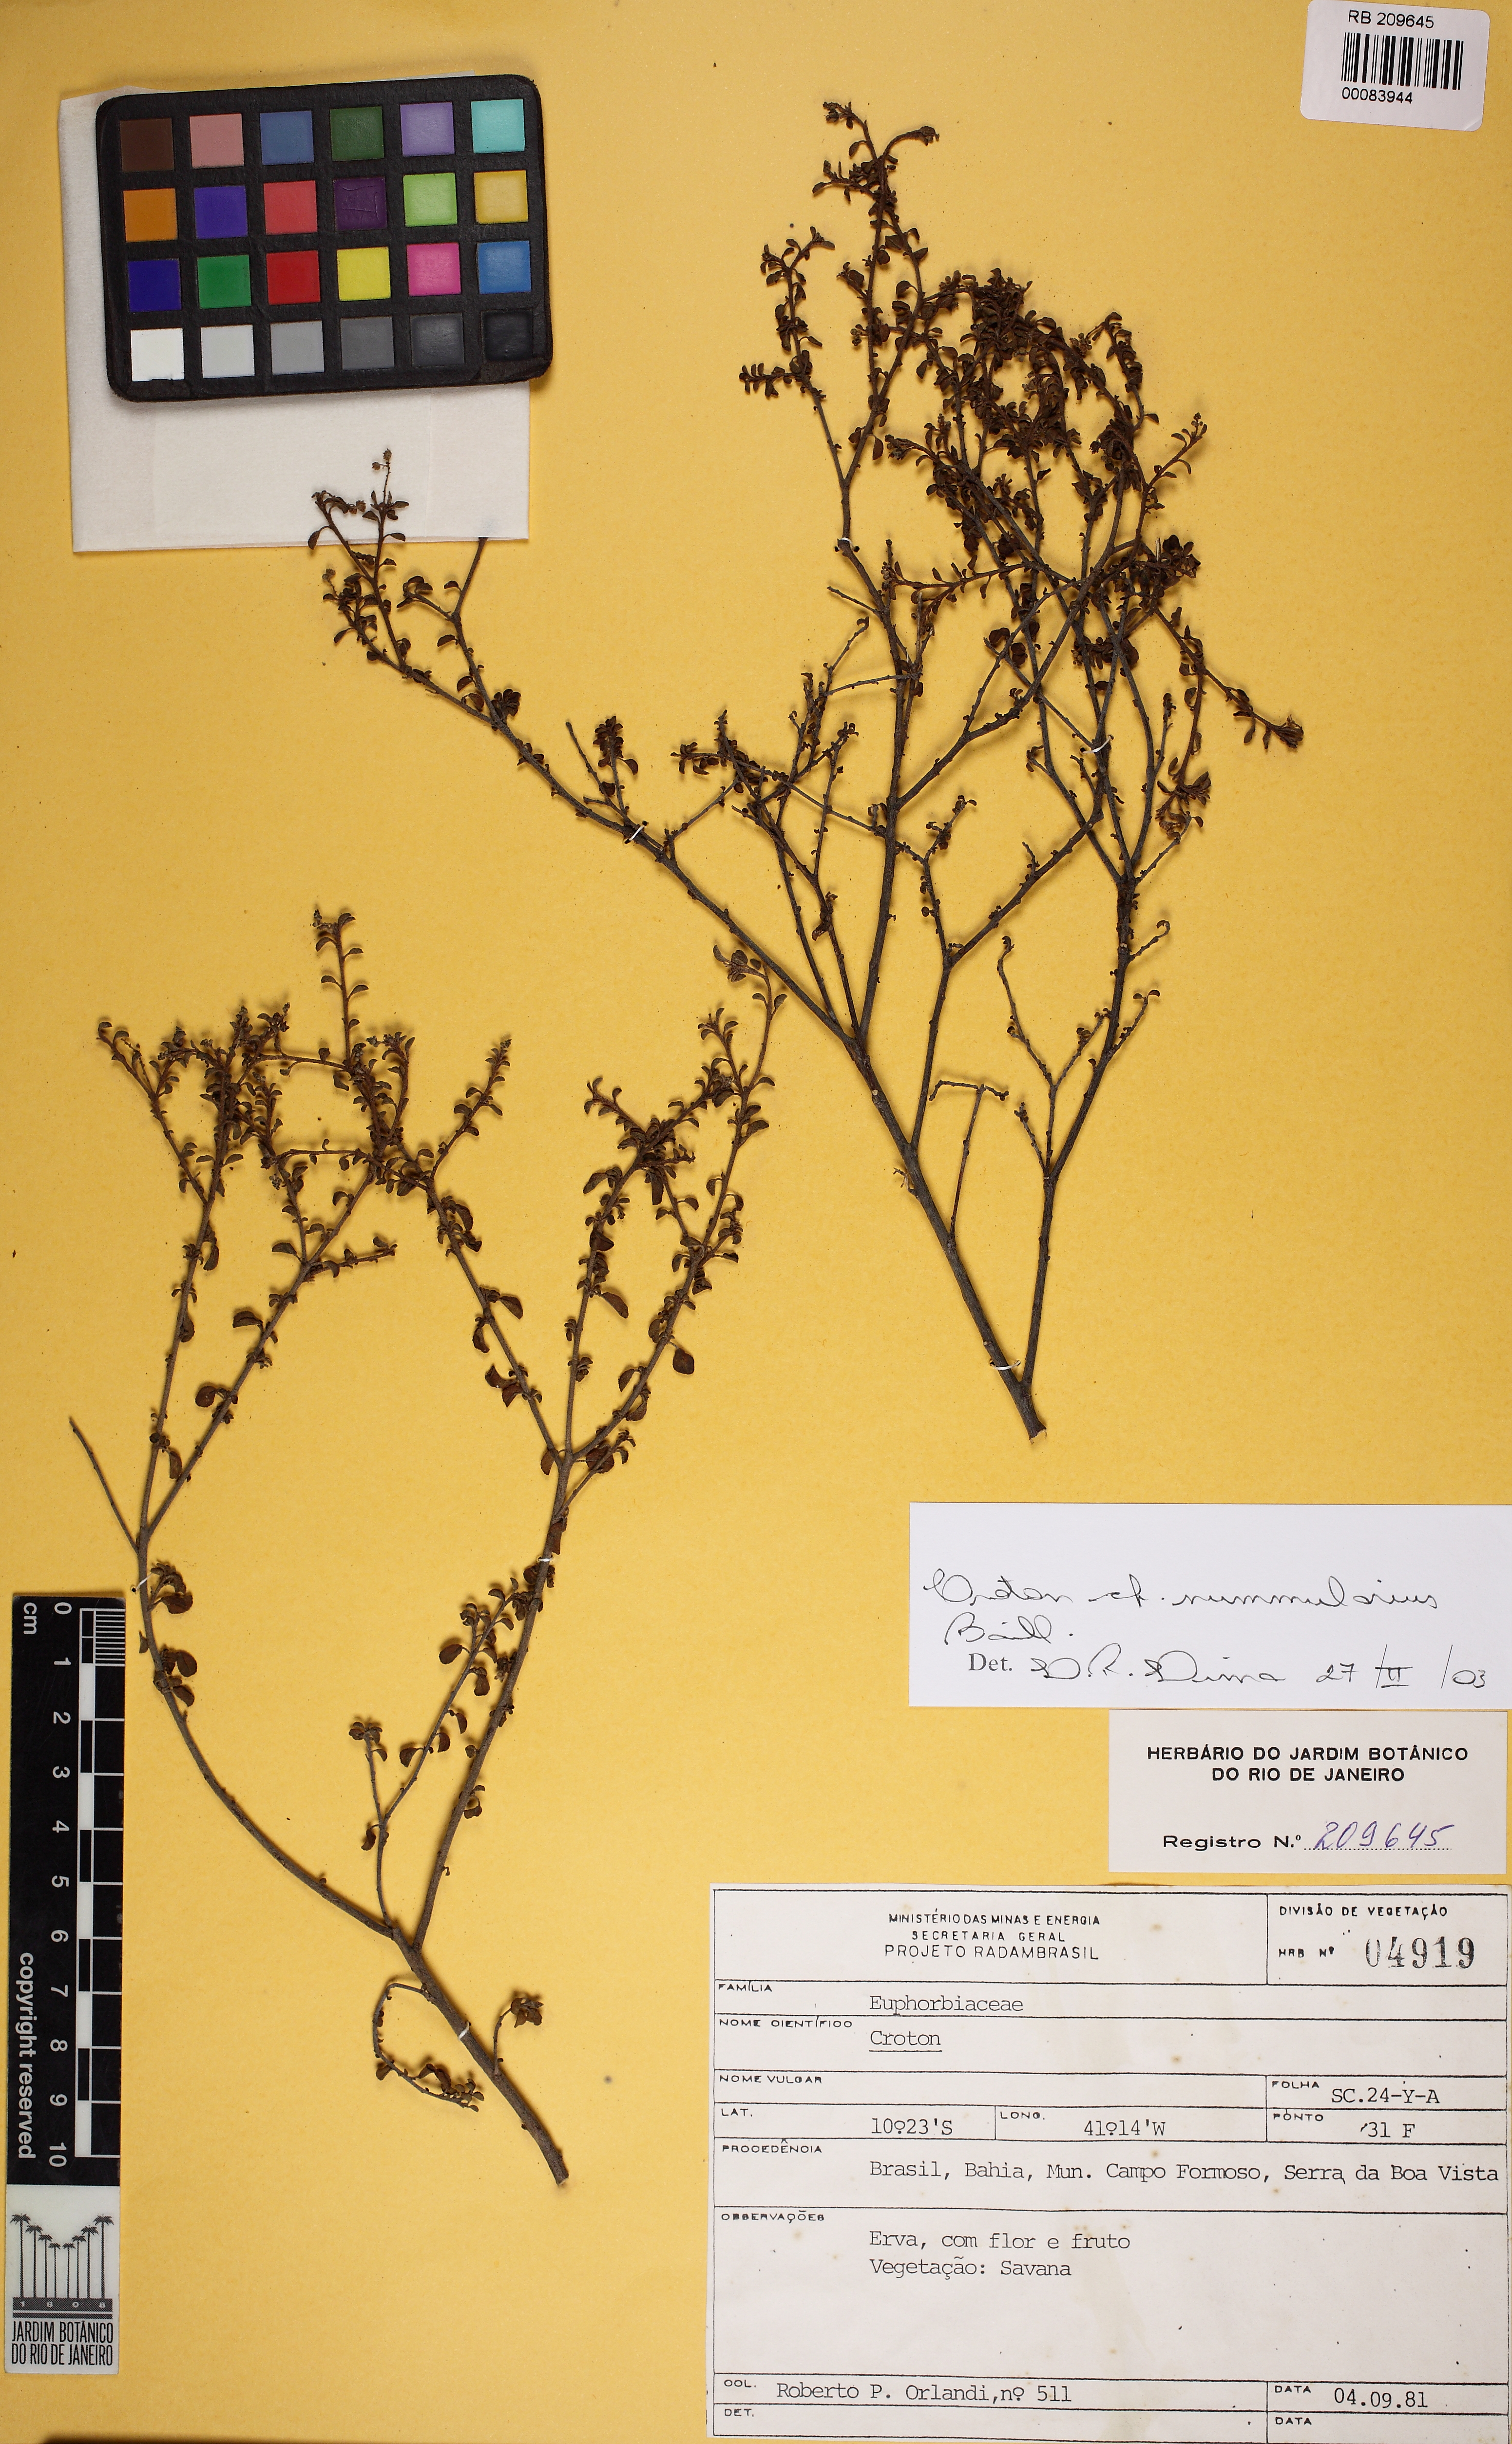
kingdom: Plantae
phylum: Tracheophyta
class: Magnoliopsida
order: Malpighiales
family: Euphorbiaceae
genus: Croton
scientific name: Croton nummularius
